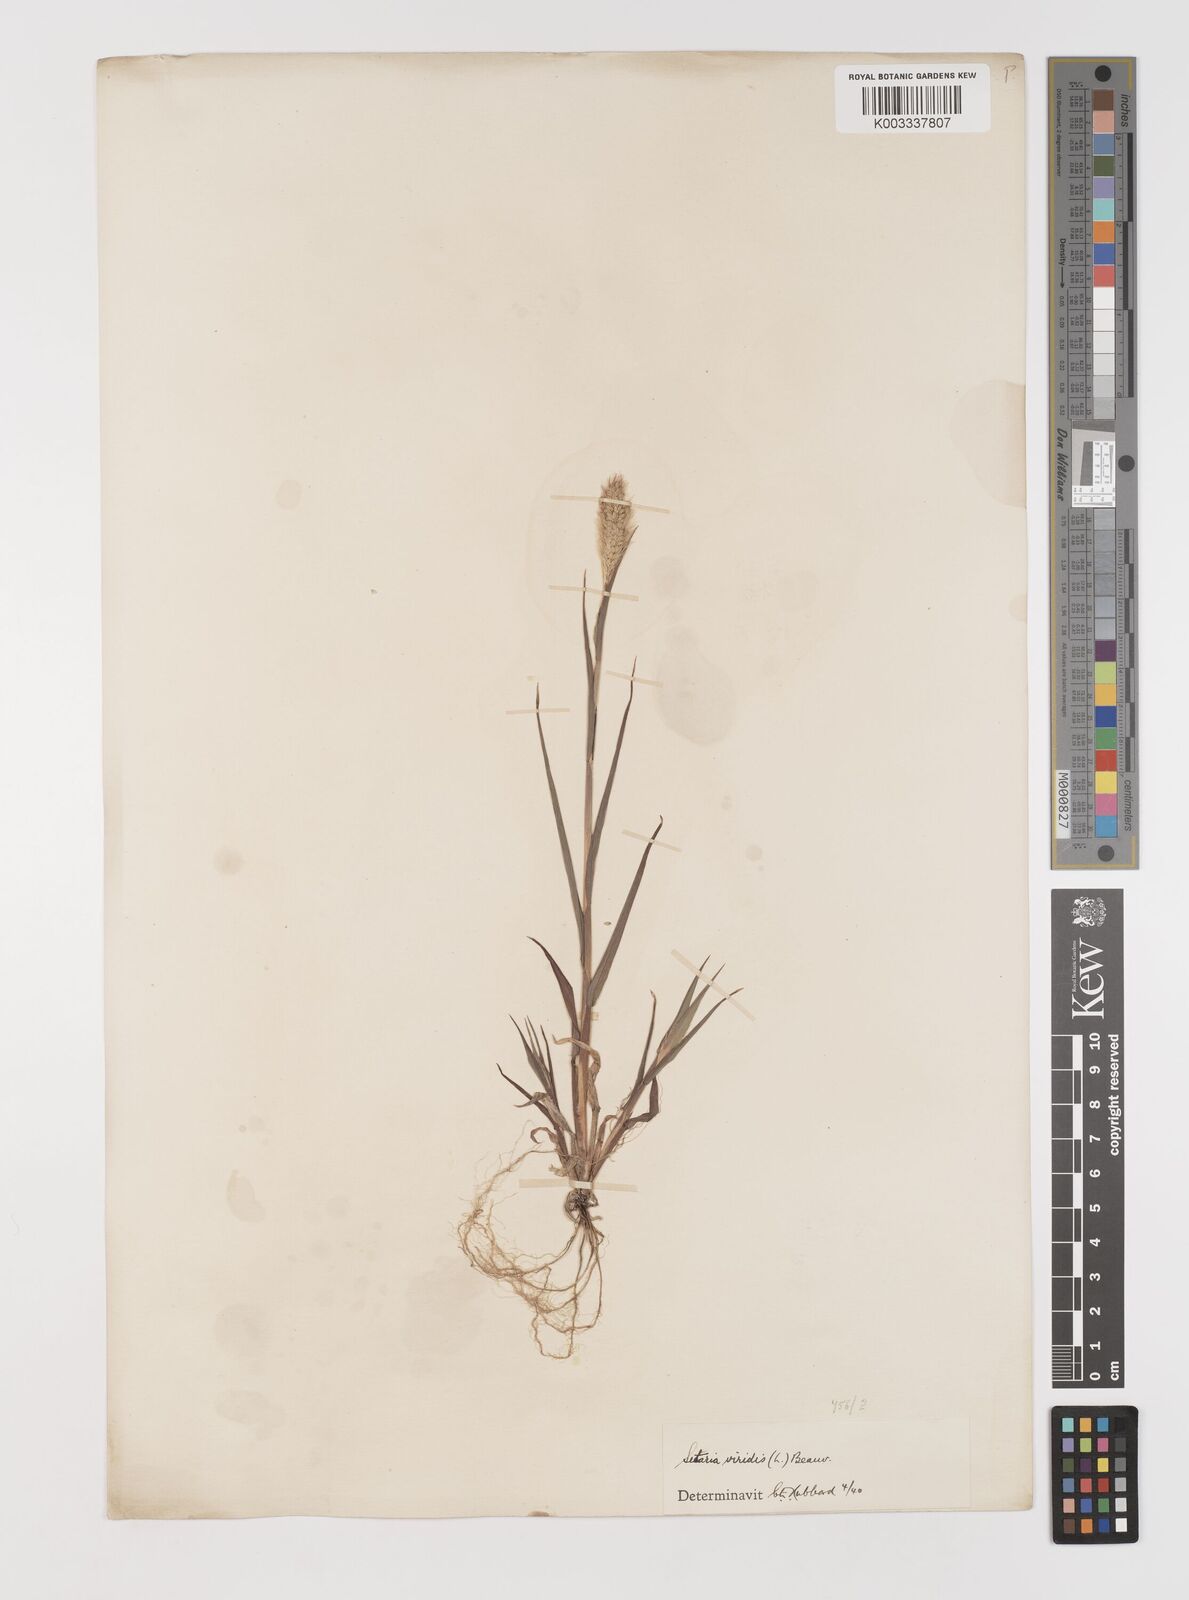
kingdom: Plantae
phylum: Tracheophyta
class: Liliopsida
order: Poales
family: Poaceae
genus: Setaria
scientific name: Setaria viridis
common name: Green bristlegrass
